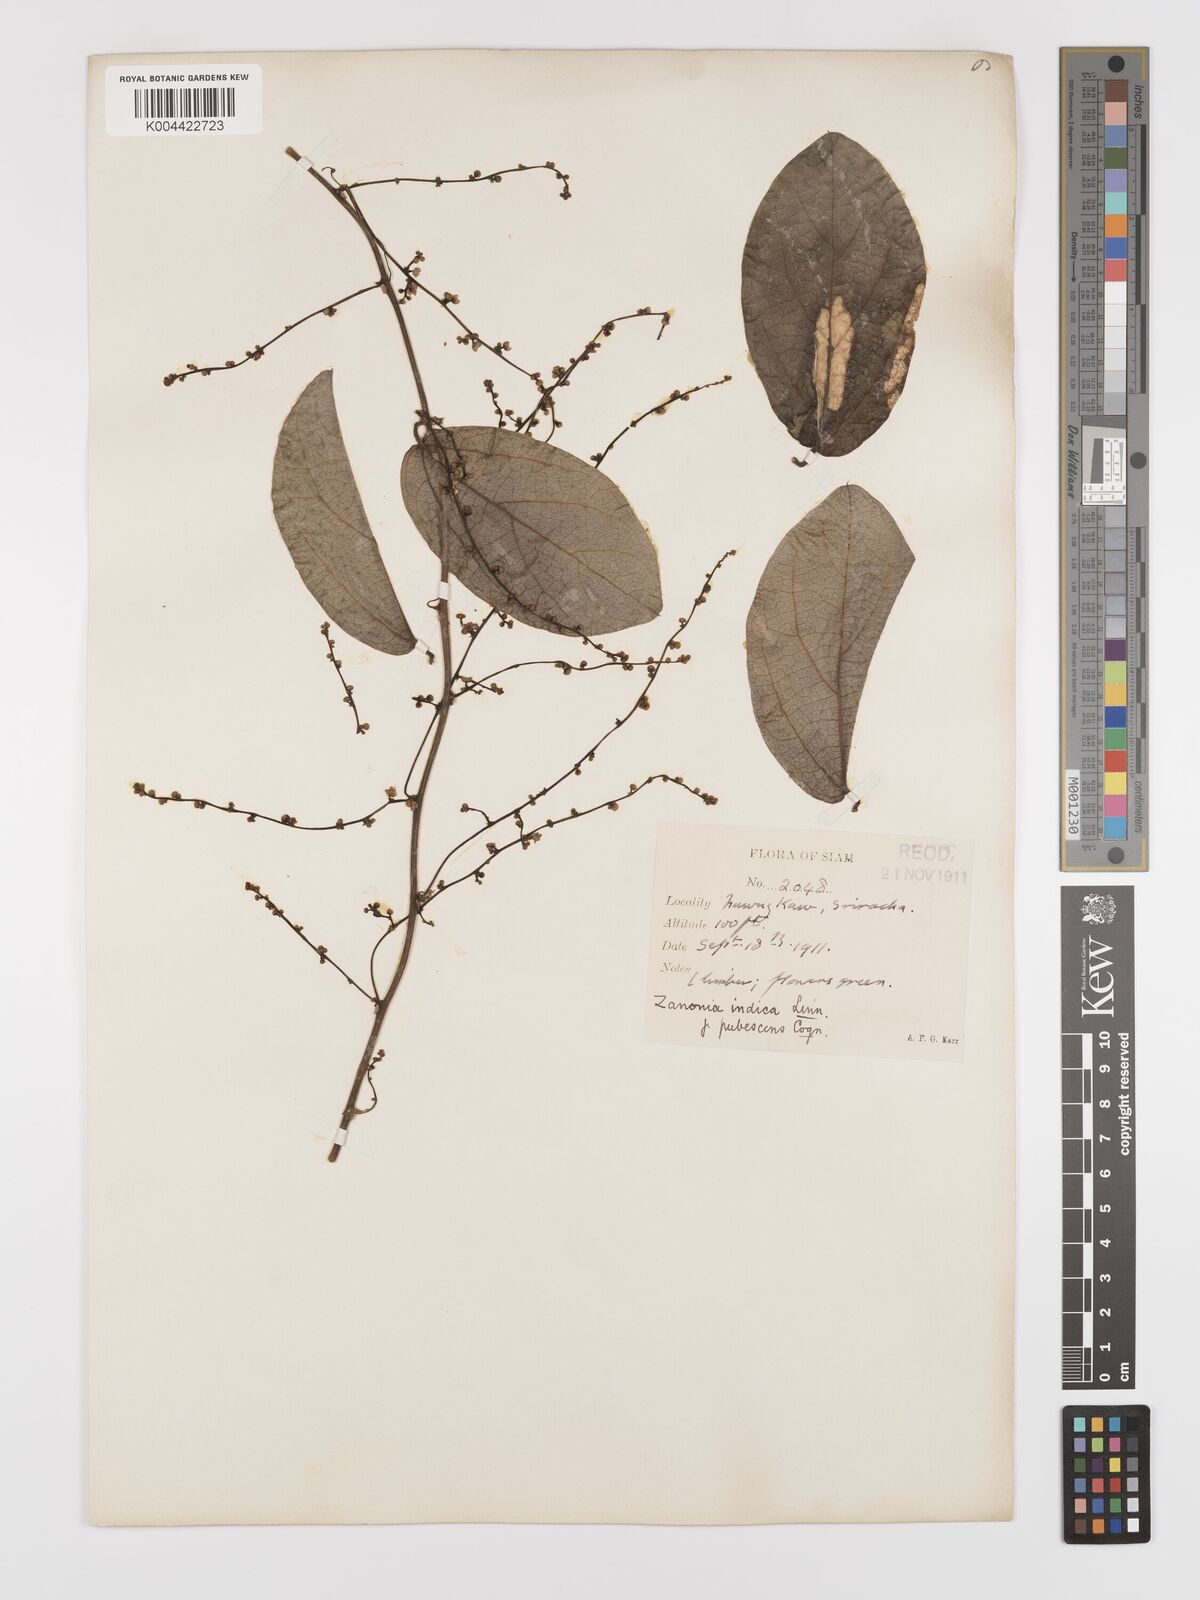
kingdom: Plantae
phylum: Tracheophyta
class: Magnoliopsida
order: Cucurbitales
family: Cucurbitaceae
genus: Zanonia
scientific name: Zanonia indica
